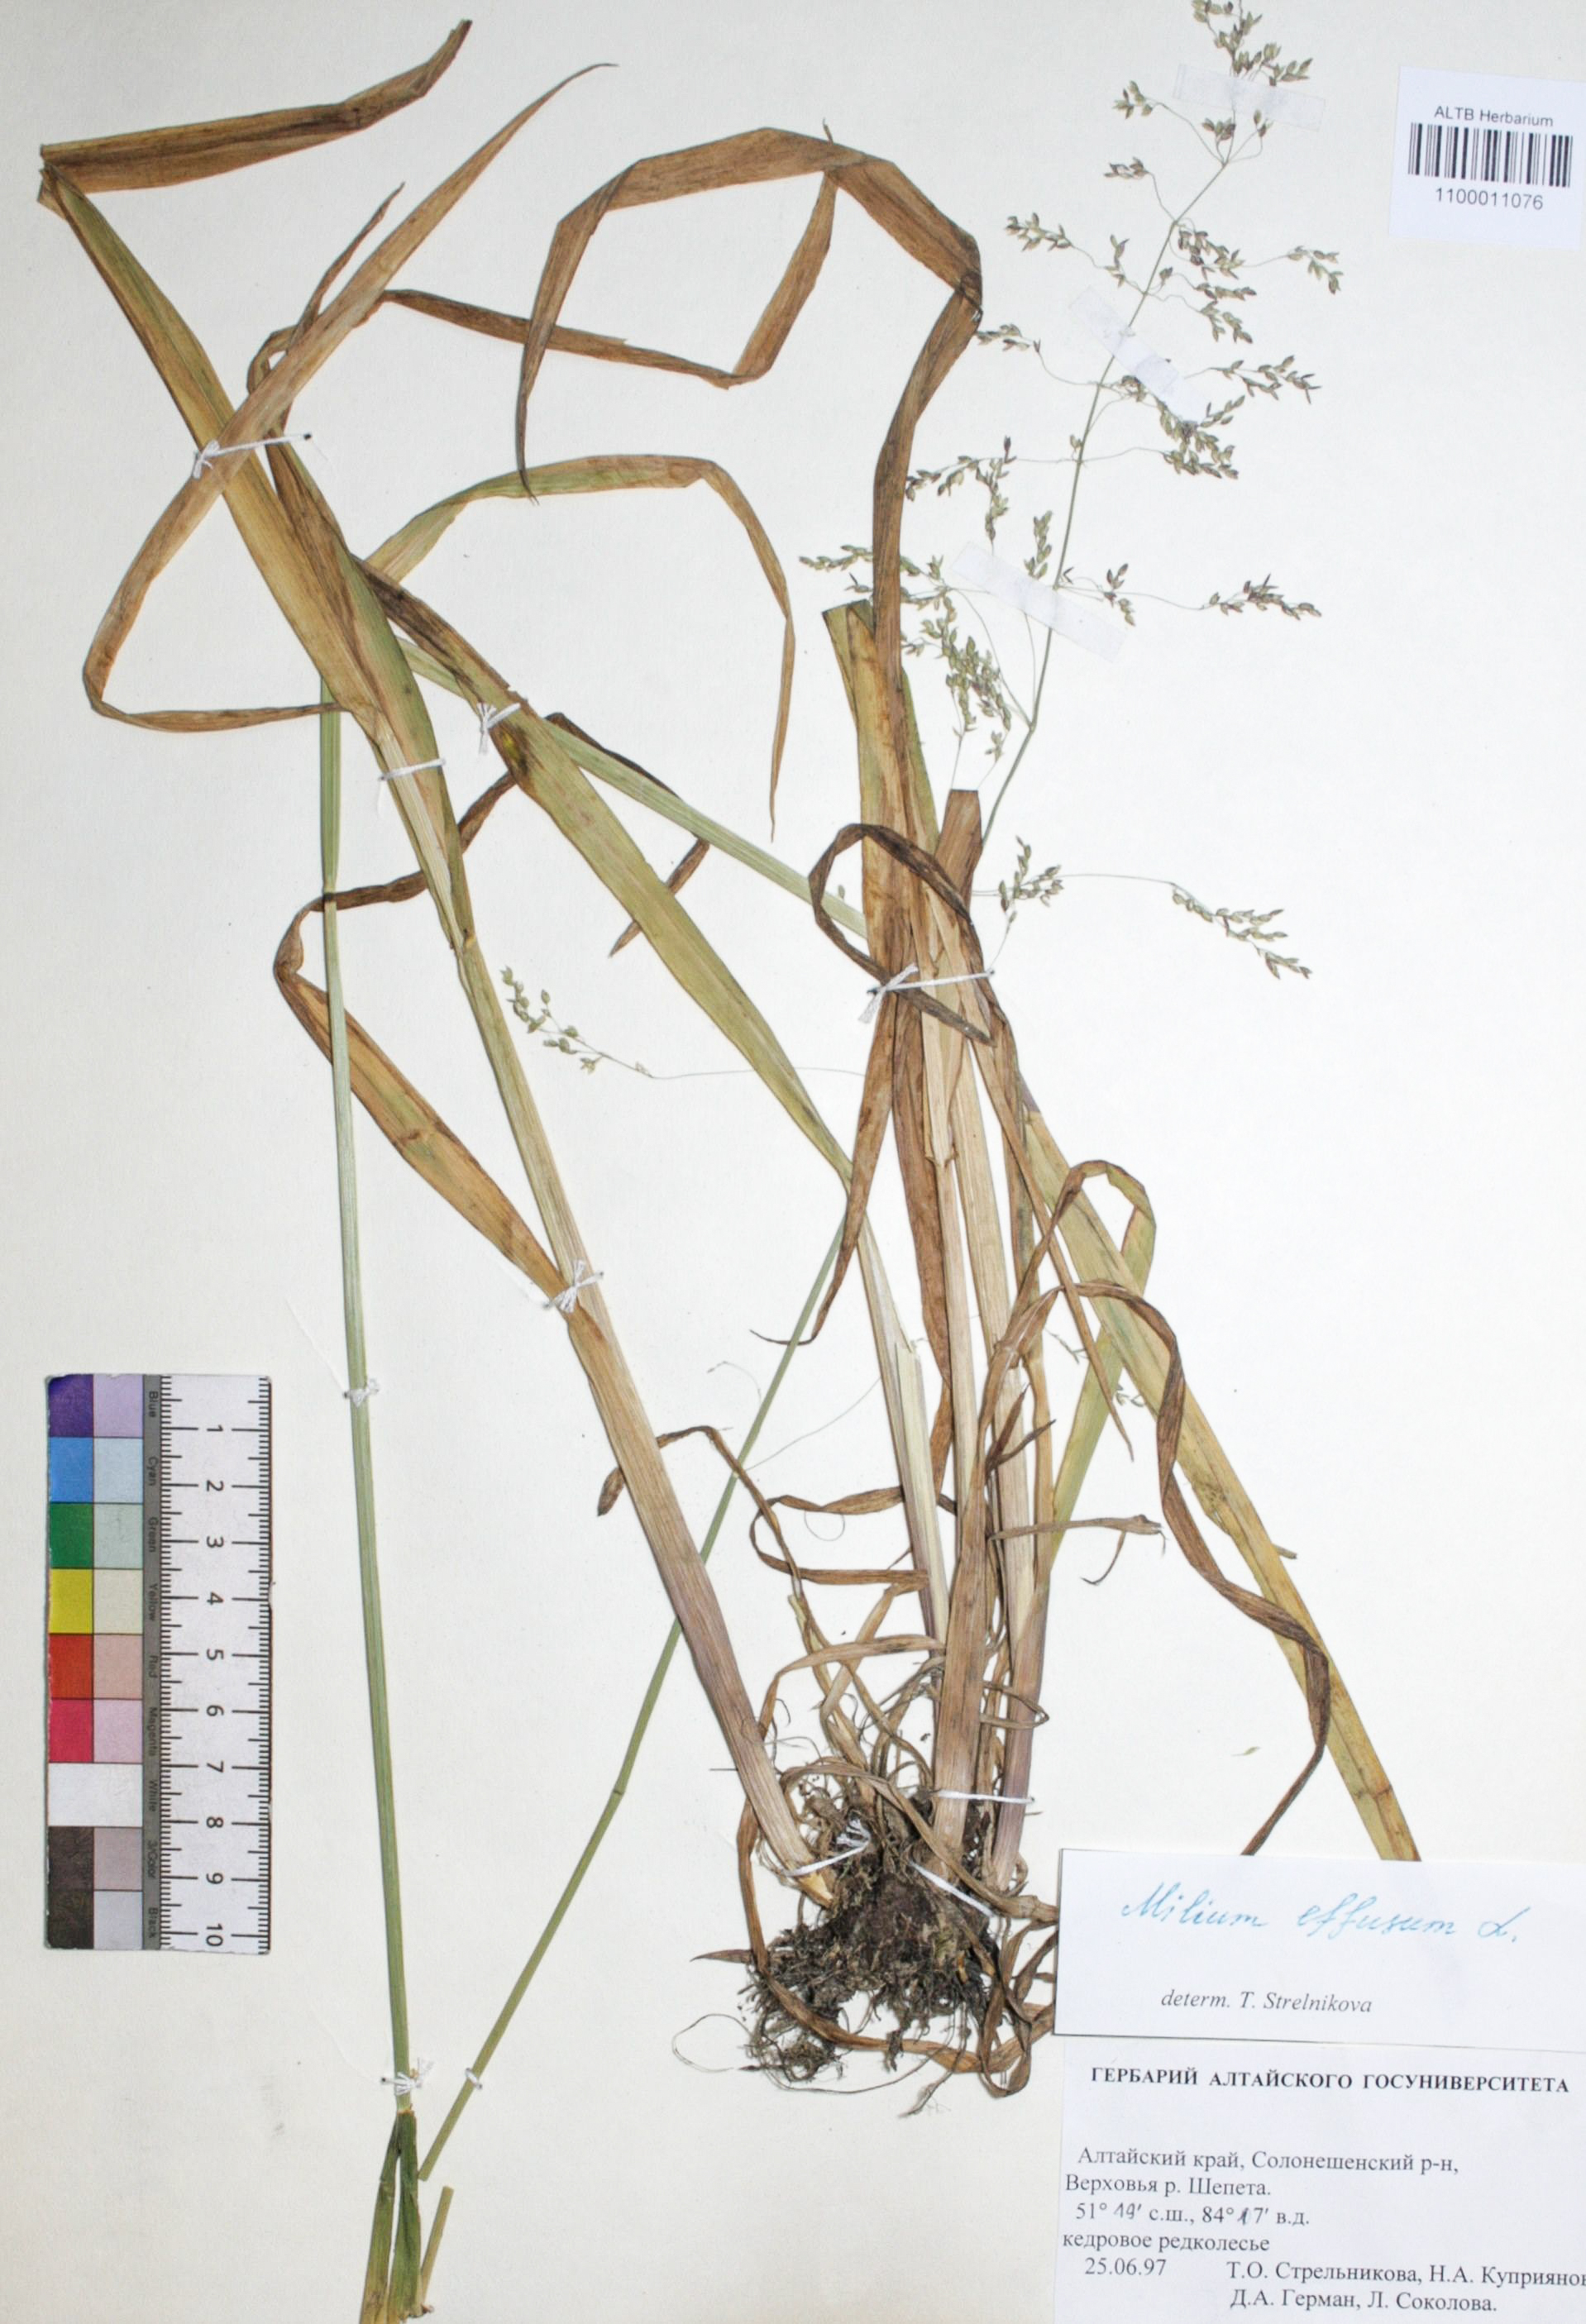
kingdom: Plantae
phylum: Tracheophyta
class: Liliopsida
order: Poales
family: Poaceae
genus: Milium
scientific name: Milium effusum
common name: Wood millet
